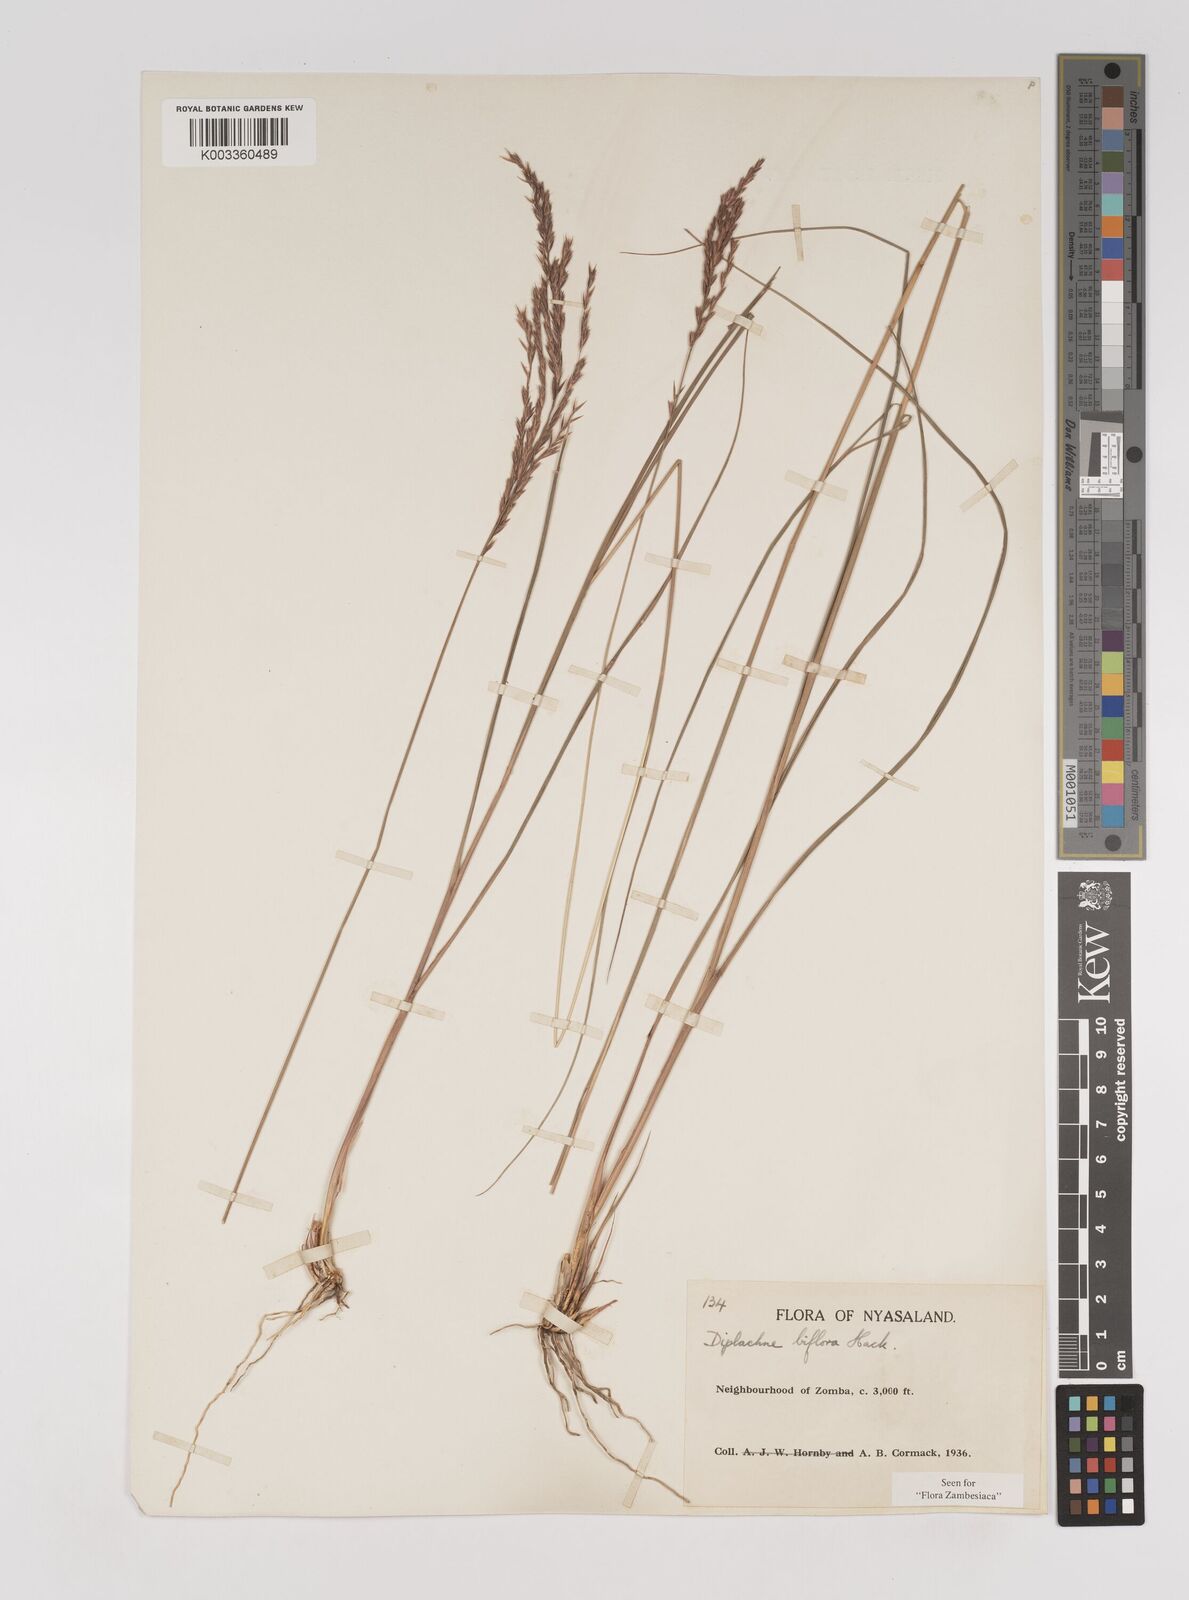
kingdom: Plantae
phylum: Tracheophyta
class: Liliopsida
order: Poales
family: Poaceae
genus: Bewsia
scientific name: Bewsia biflora
